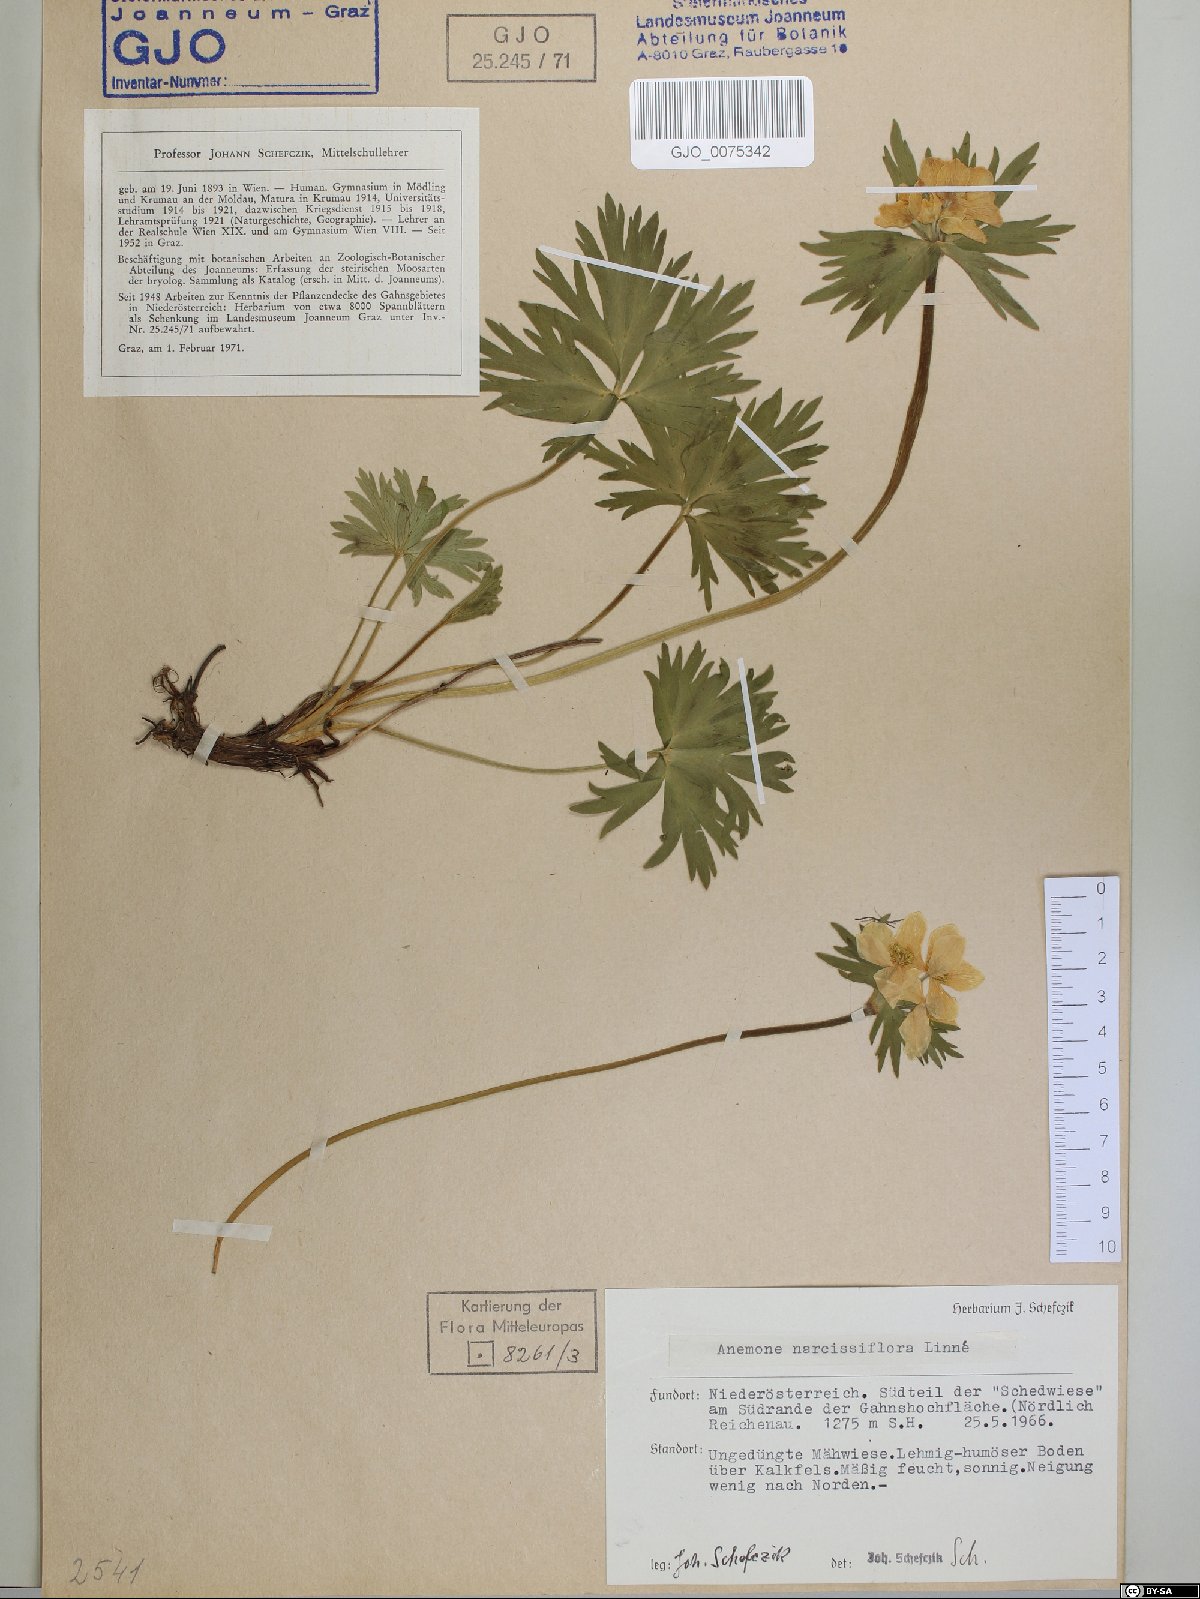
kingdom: Plantae
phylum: Tracheophyta
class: Magnoliopsida
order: Ranunculales
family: Ranunculaceae
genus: Anemonastrum
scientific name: Anemonastrum narcissiflorum
